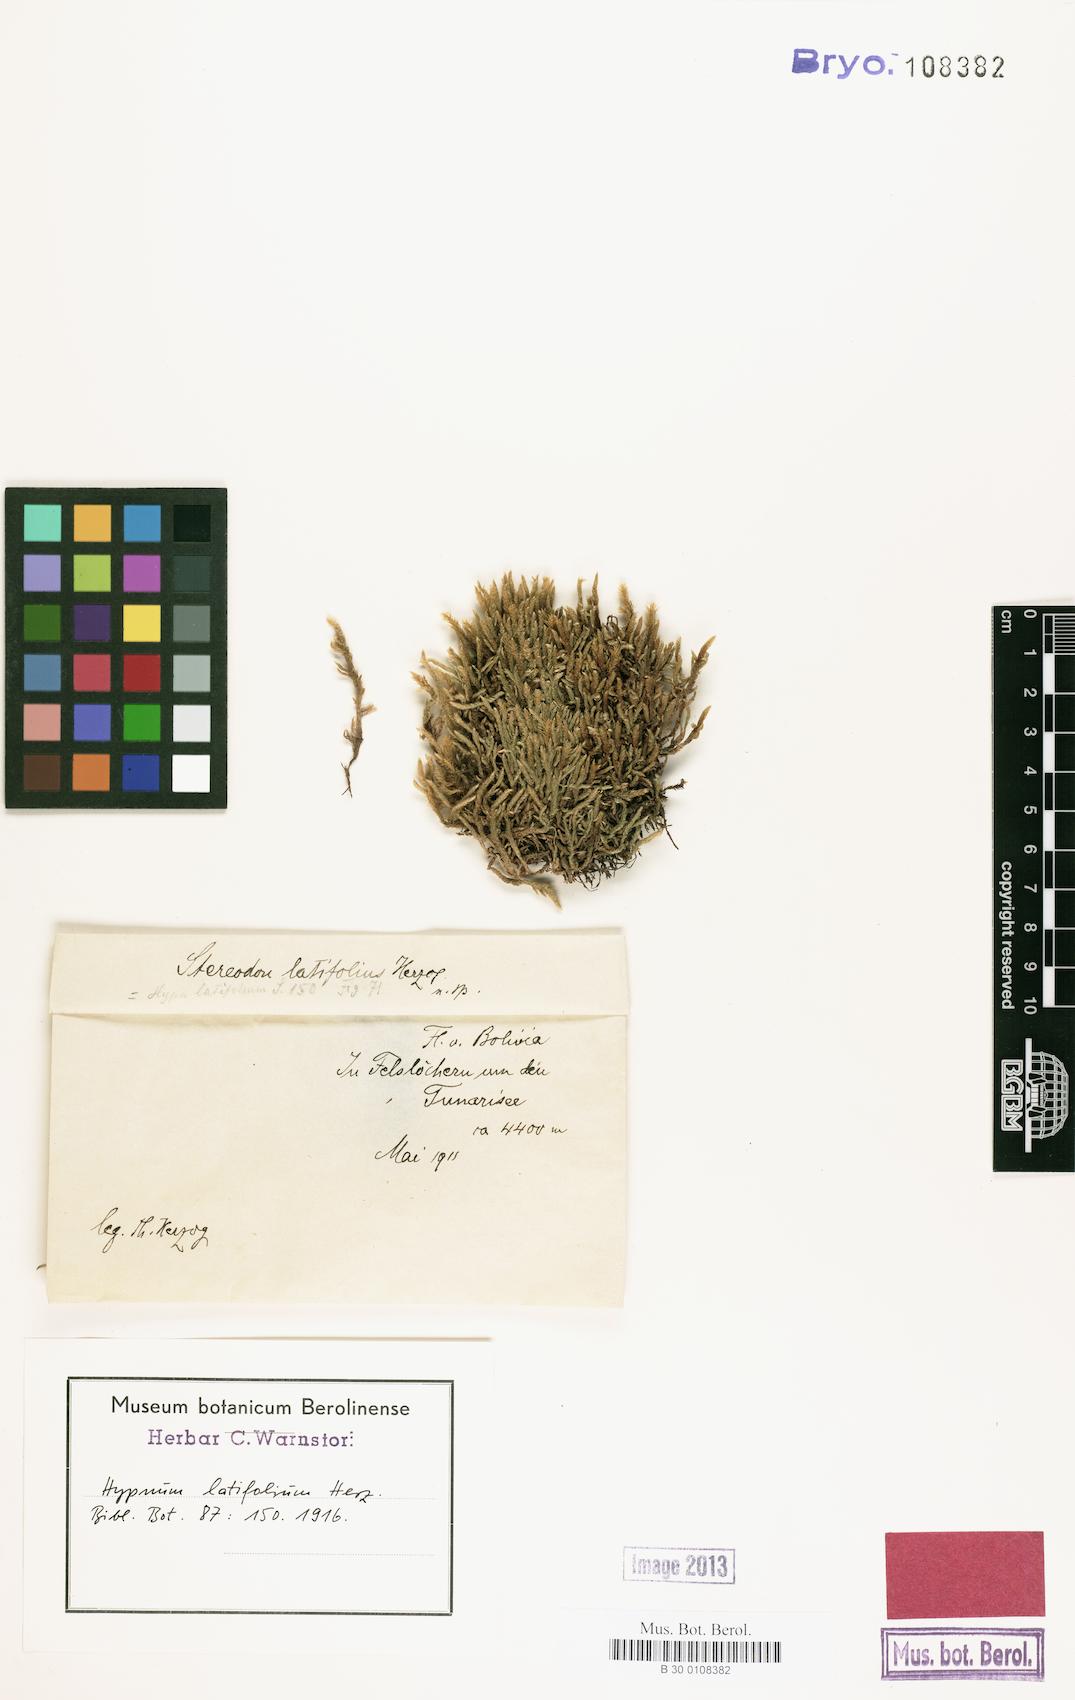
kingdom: Plantae
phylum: Bryophyta
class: Bryopsida
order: Hypnales
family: Hypnaceae
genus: Hypnum
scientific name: Hypnum cupressiforme
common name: Cypress-leaved plait-moss
